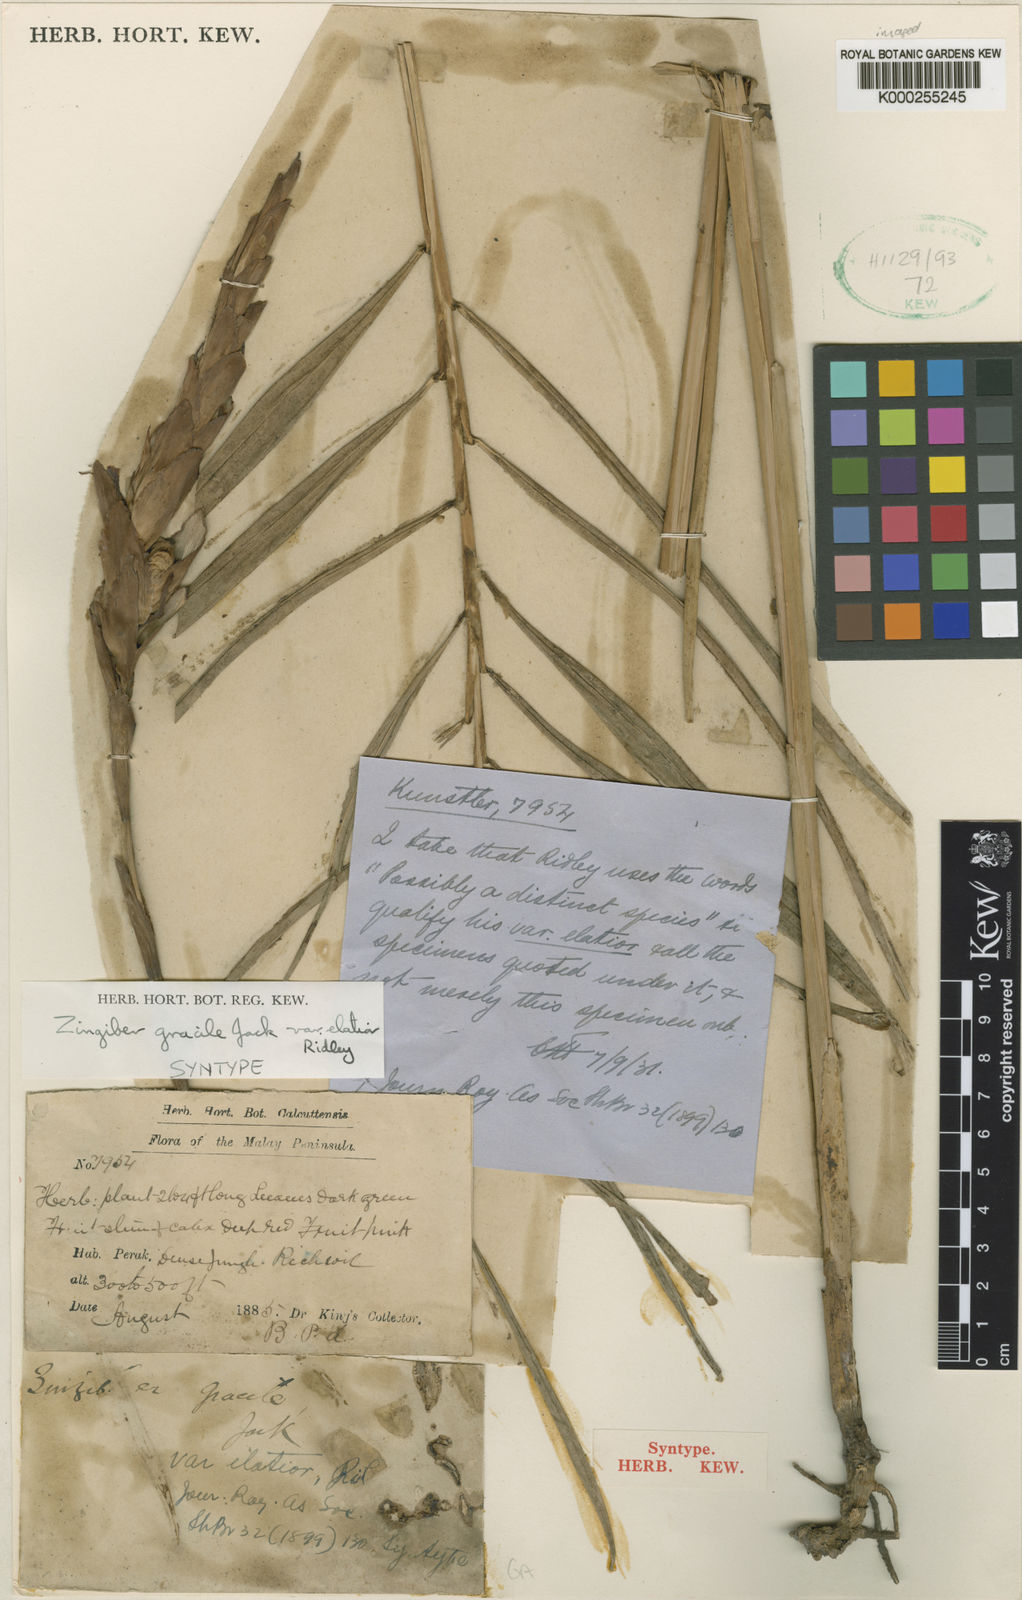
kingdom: Plantae
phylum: Tracheophyta
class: Liliopsida
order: Zingiberales
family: Zingiberaceae
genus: Zingiber
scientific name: Zingiber gracile
